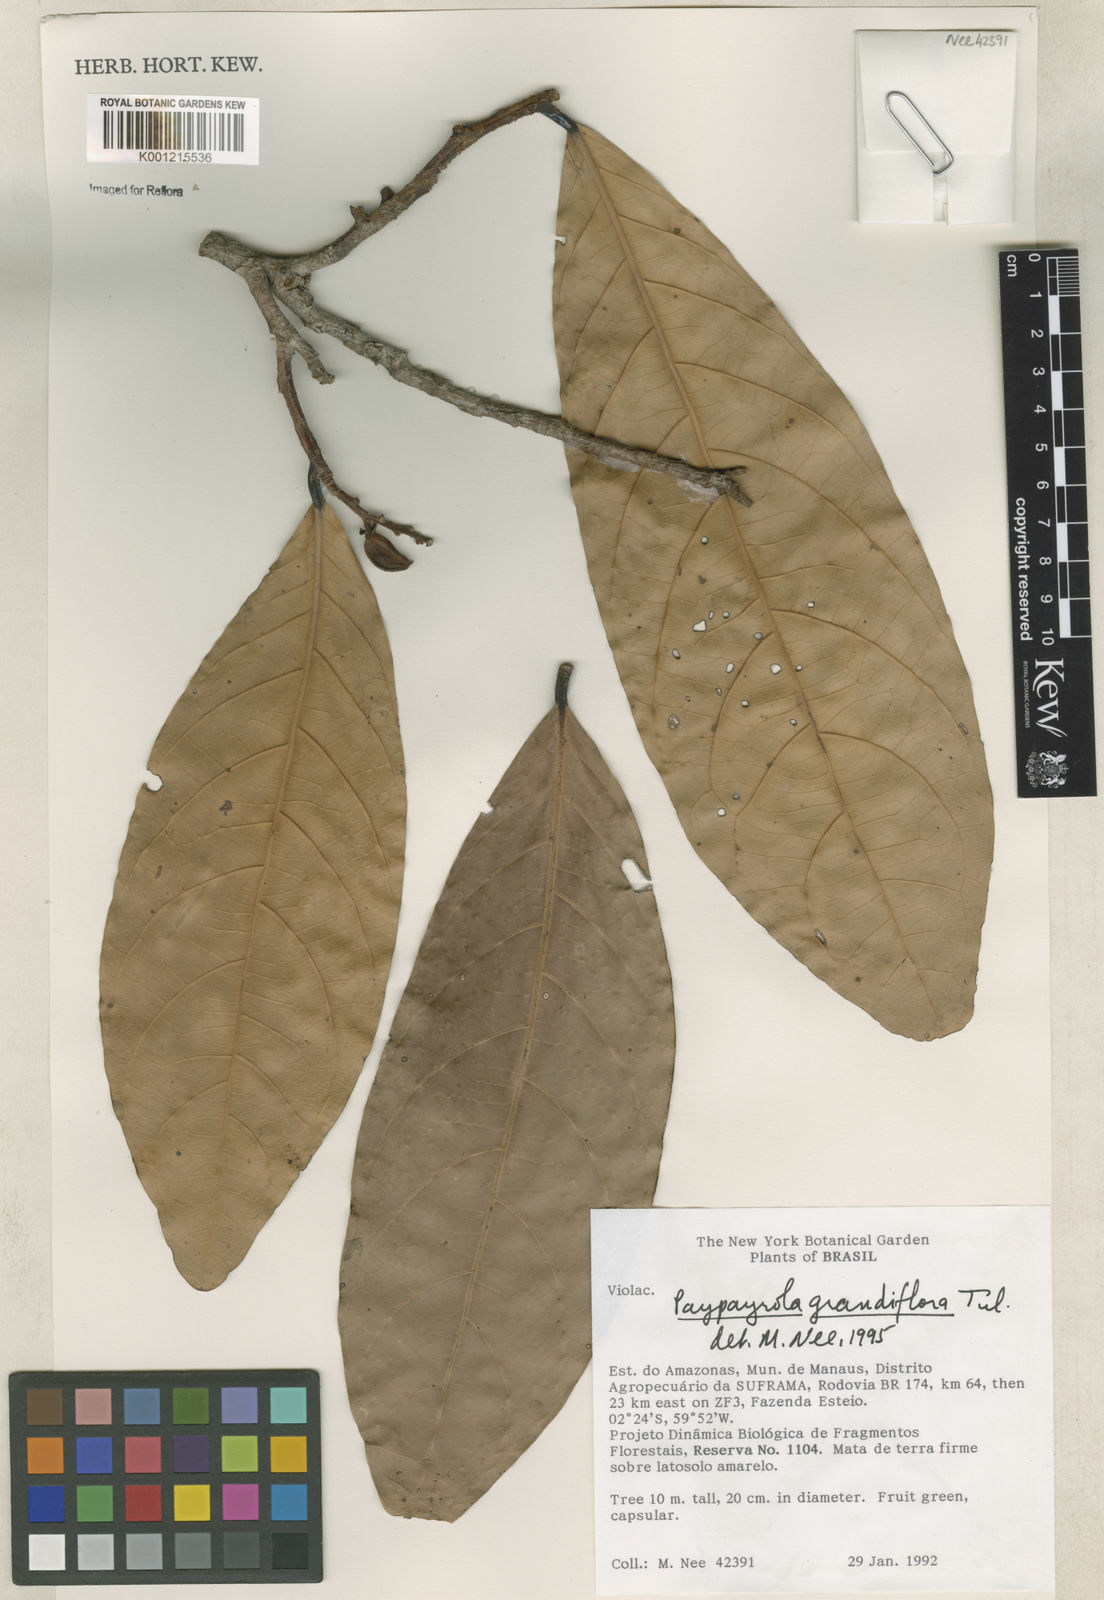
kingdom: Plantae
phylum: Tracheophyta
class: Magnoliopsida
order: Malpighiales
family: Violaceae
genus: Paypayrola
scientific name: Paypayrola grandiflora
